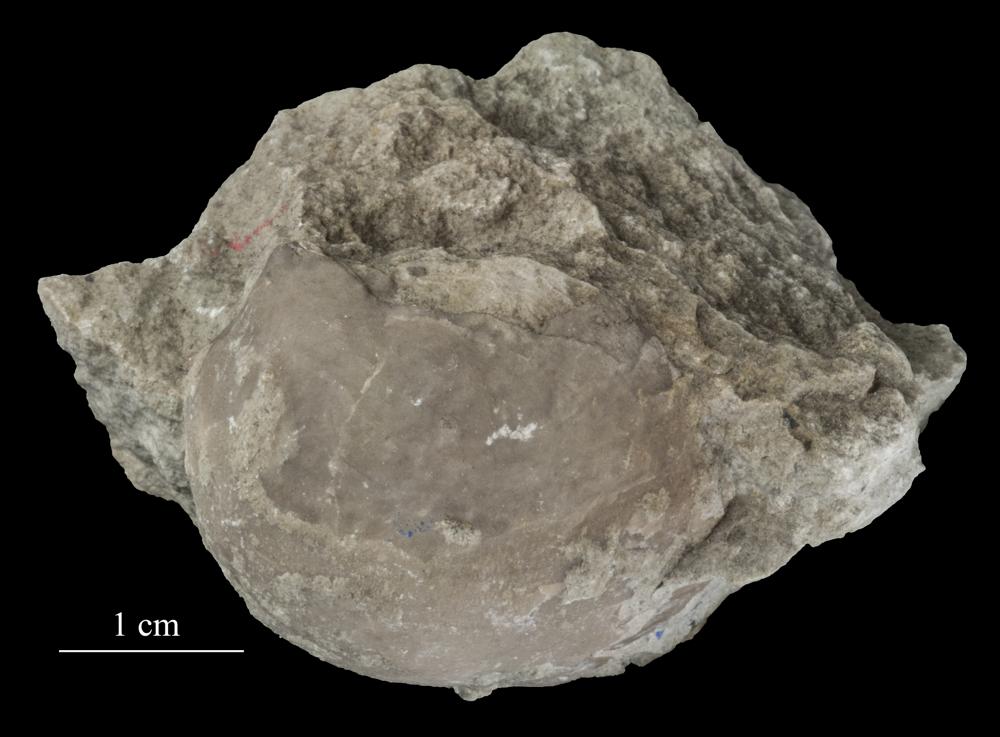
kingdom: Animalia
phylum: Brachiopoda
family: Strophomenidae
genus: Tallinnites
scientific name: Tallinnites Oepikina imbrexoidea
